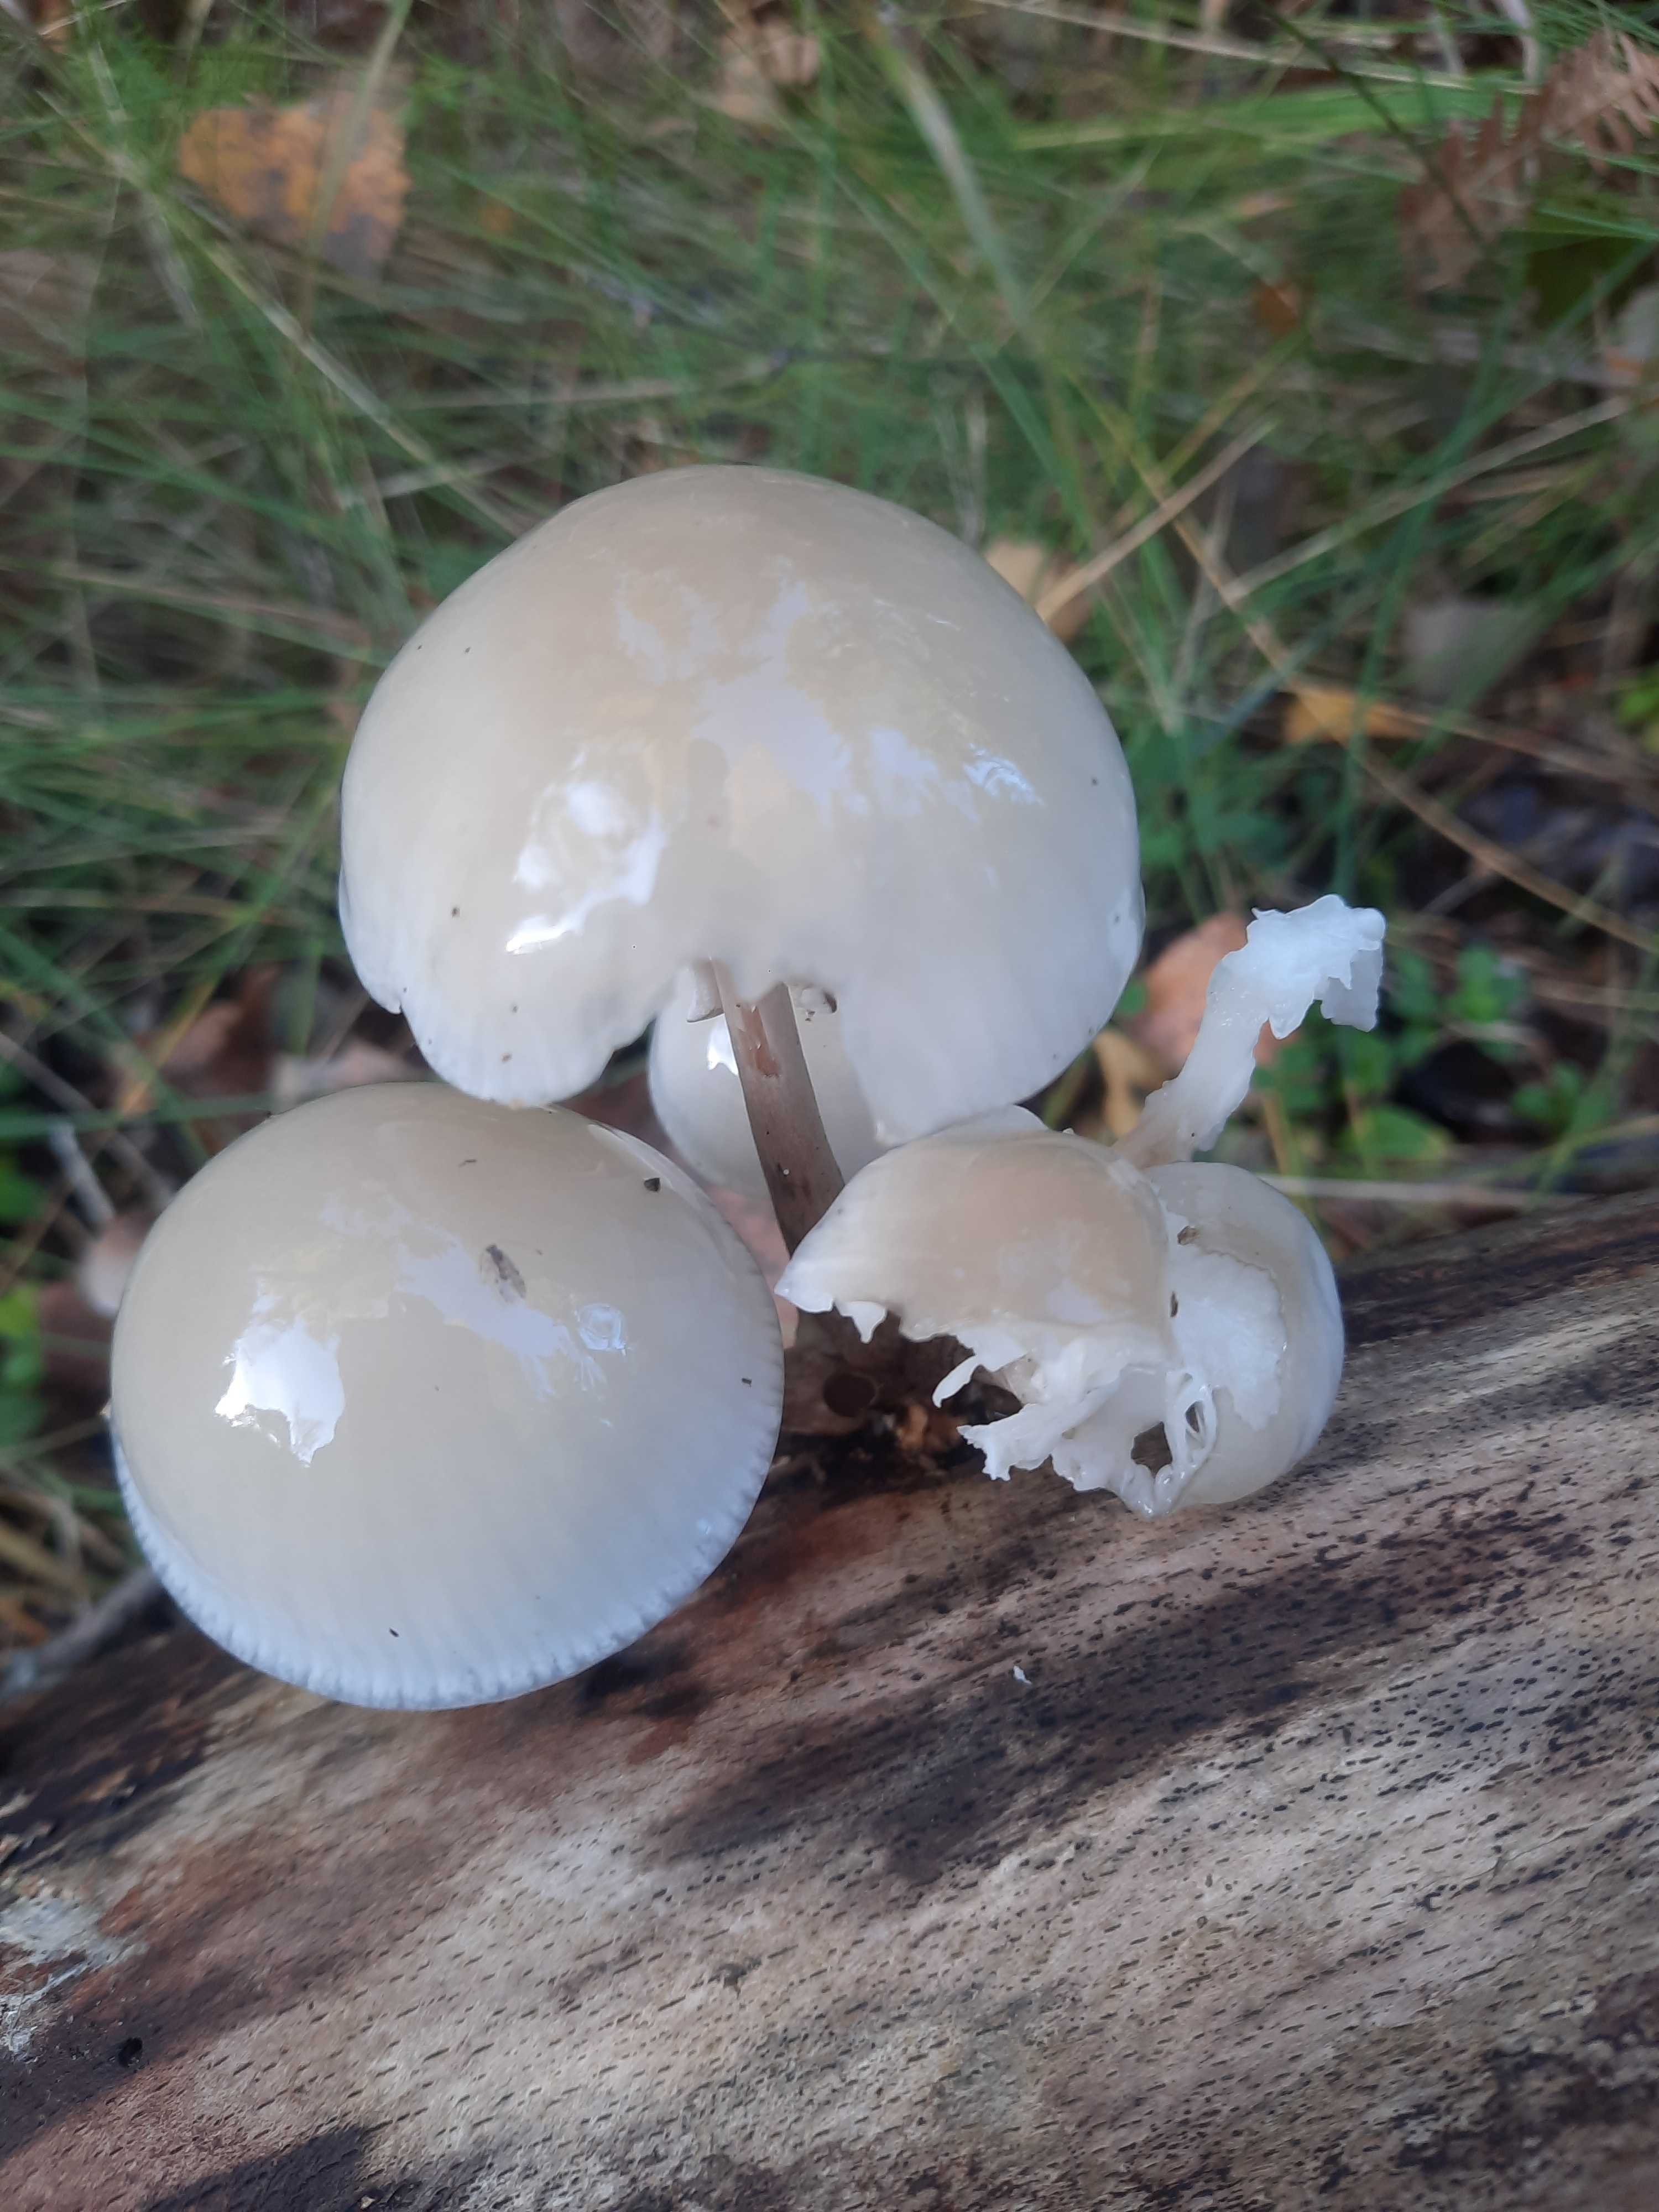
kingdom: Fungi
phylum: Basidiomycota
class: Agaricomycetes
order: Agaricales
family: Physalacriaceae
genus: Mucidula
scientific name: Mucidula mucida
